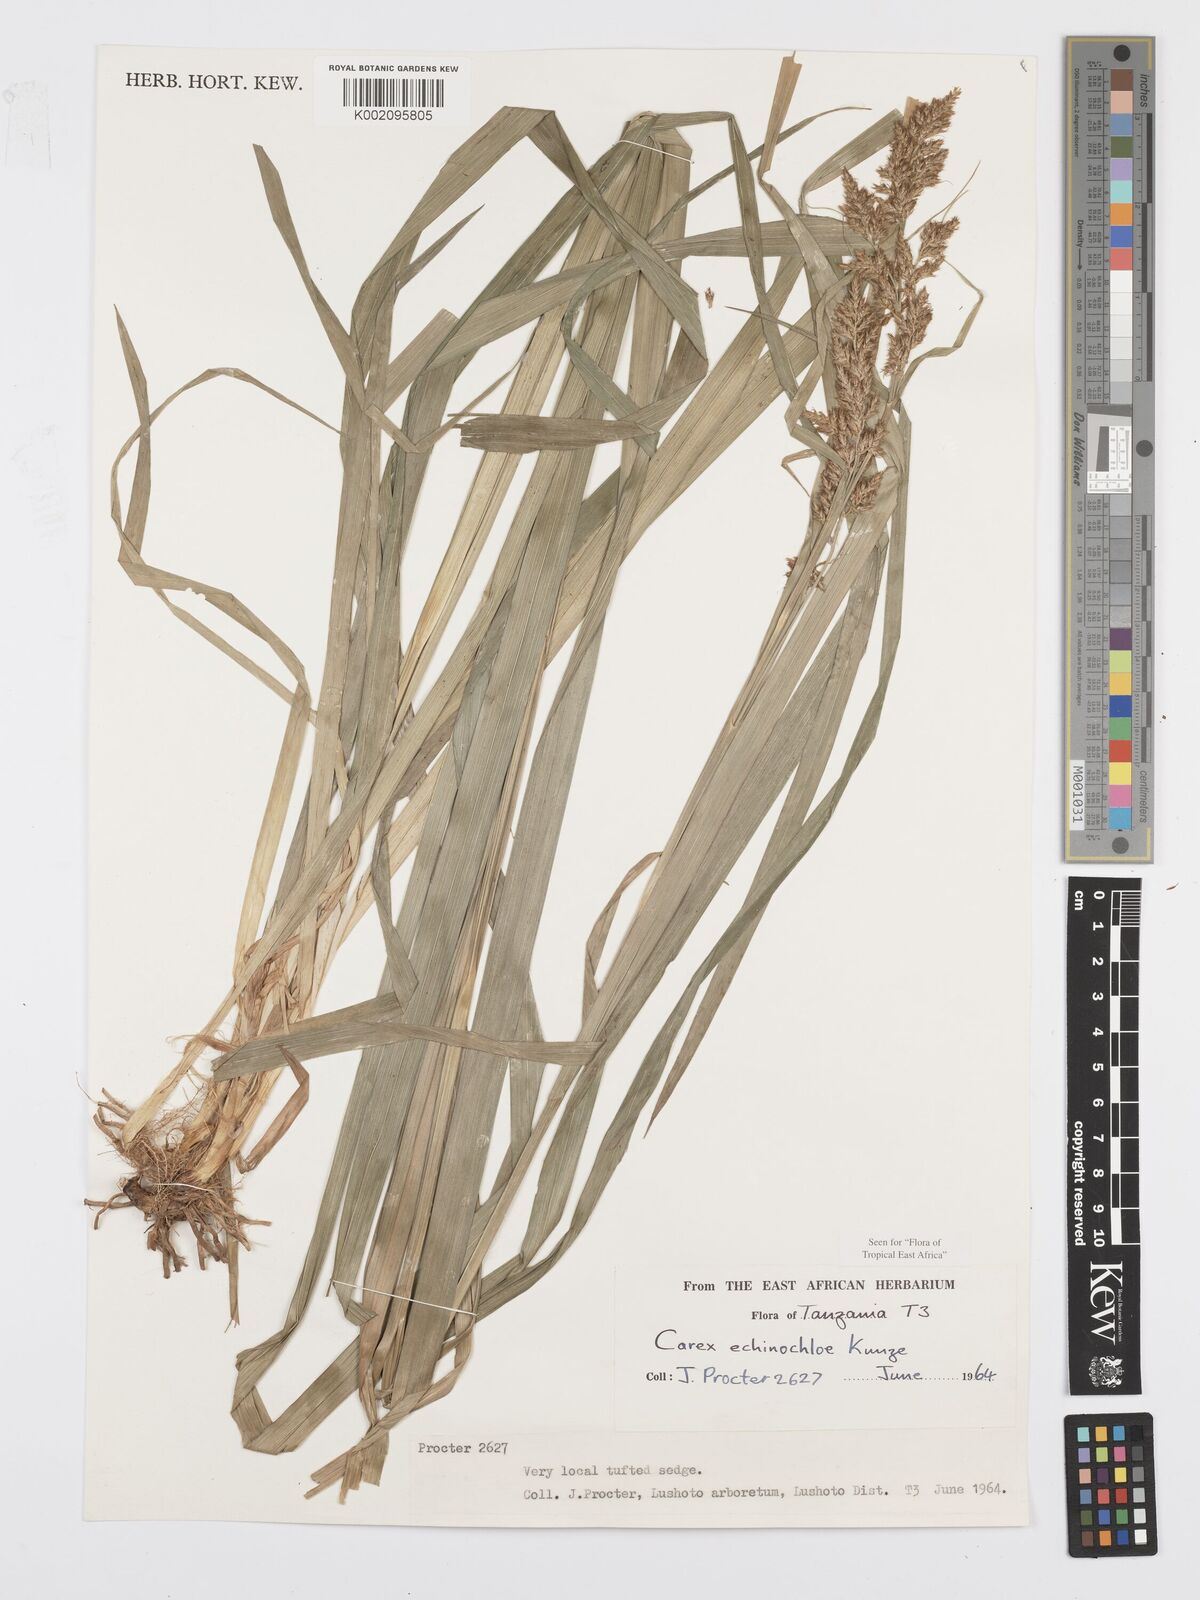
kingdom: Plantae
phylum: Tracheophyta
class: Liliopsida
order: Poales
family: Cyperaceae
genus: Carex
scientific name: Carex echinochloe
